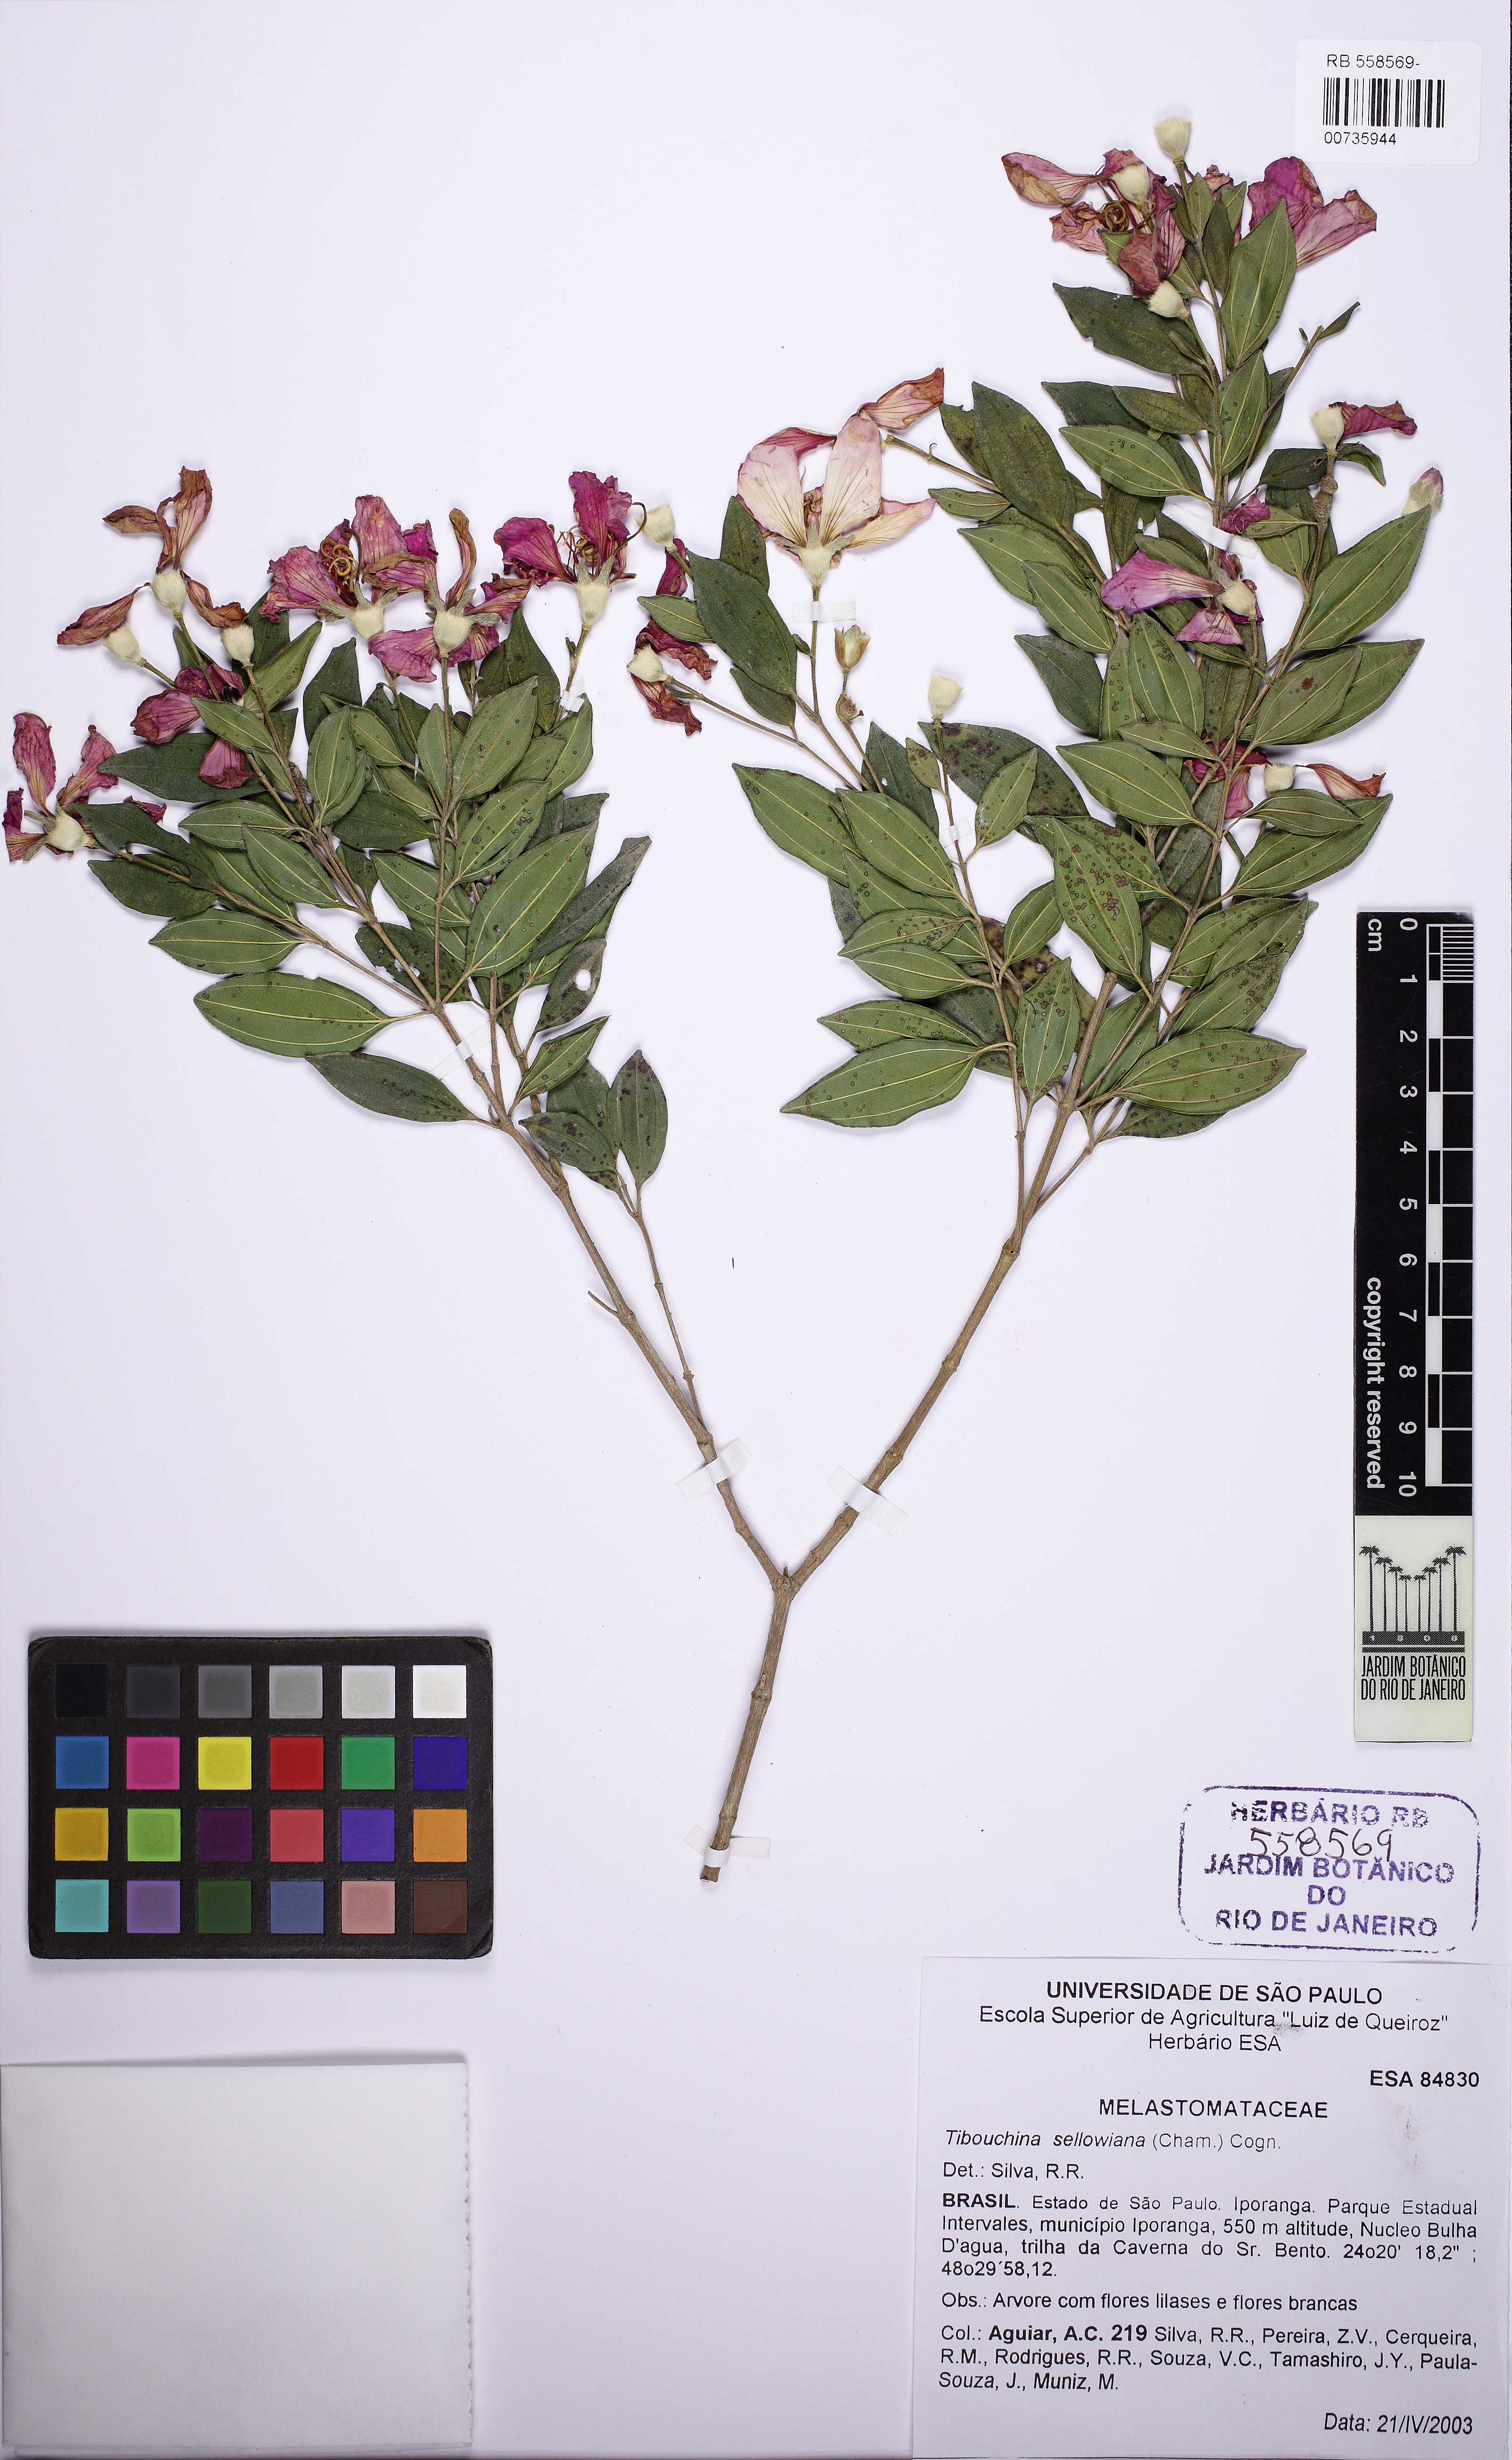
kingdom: Plantae
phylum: Tracheophyta
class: Magnoliopsida
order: Myrtales
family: Melastomataceae
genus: Pleroma
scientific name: Pleroma sellowianum
